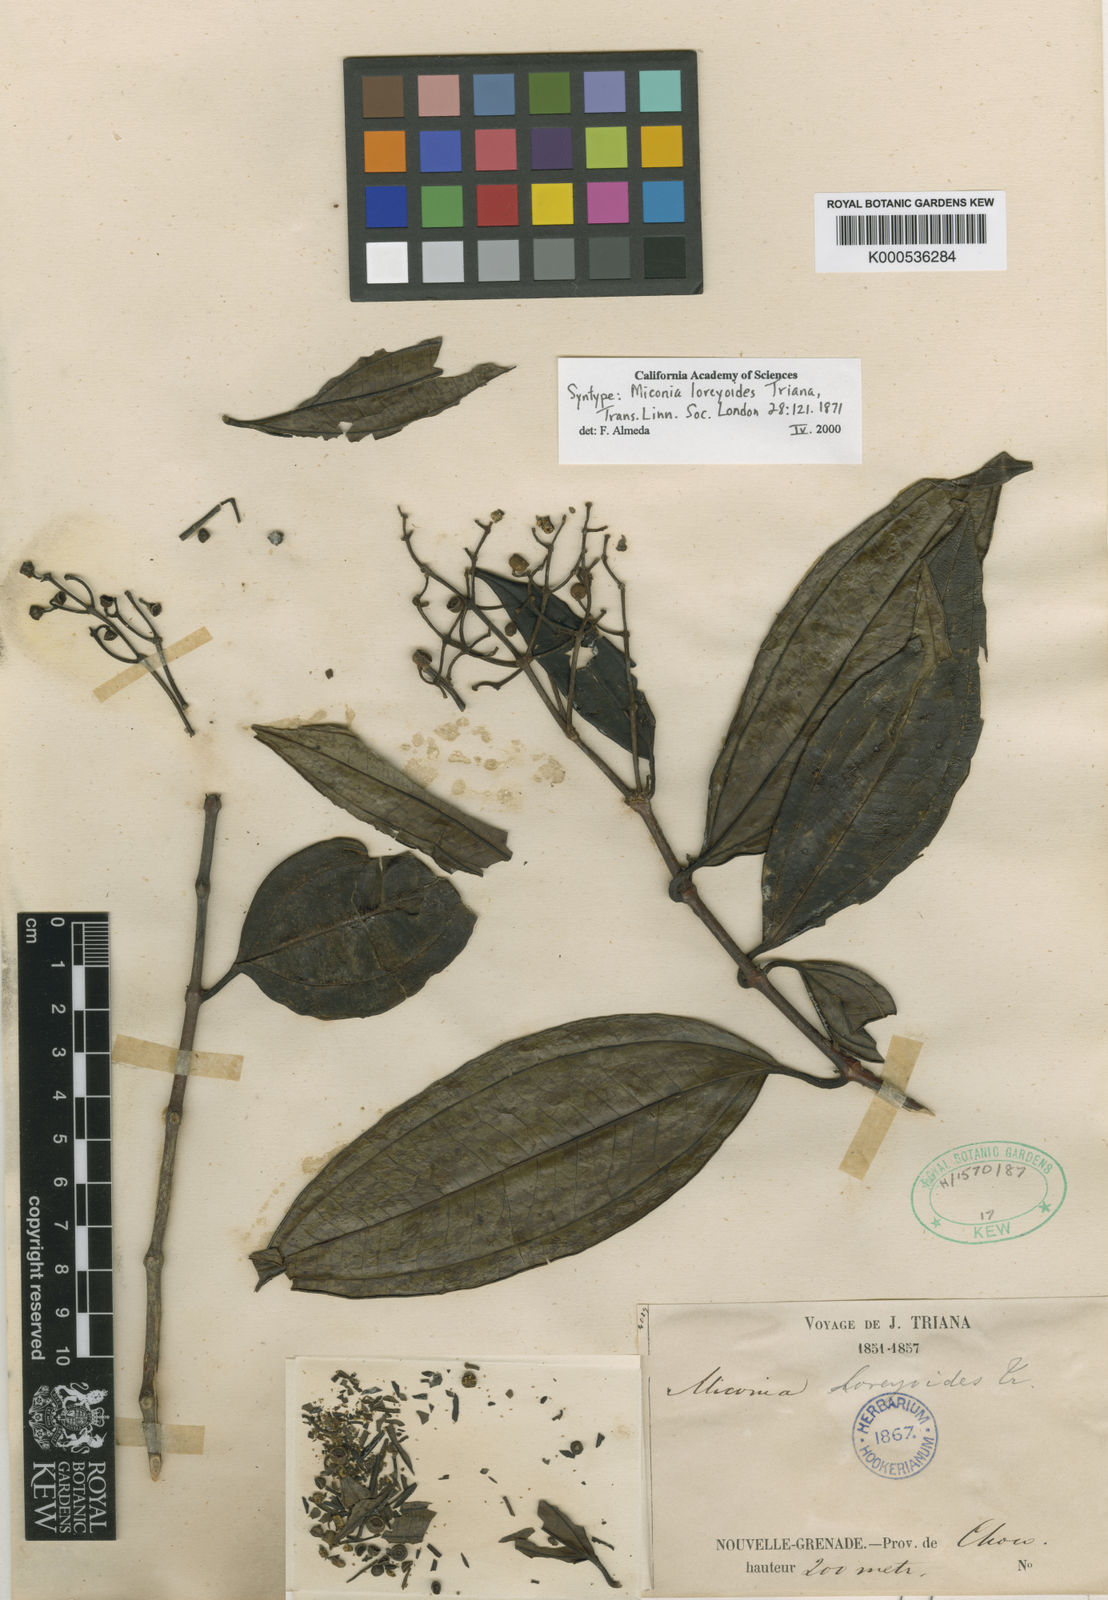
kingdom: Plantae
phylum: Tracheophyta
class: Magnoliopsida
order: Myrtales
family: Melastomataceae
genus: Miconia
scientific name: Miconia loreyoides
